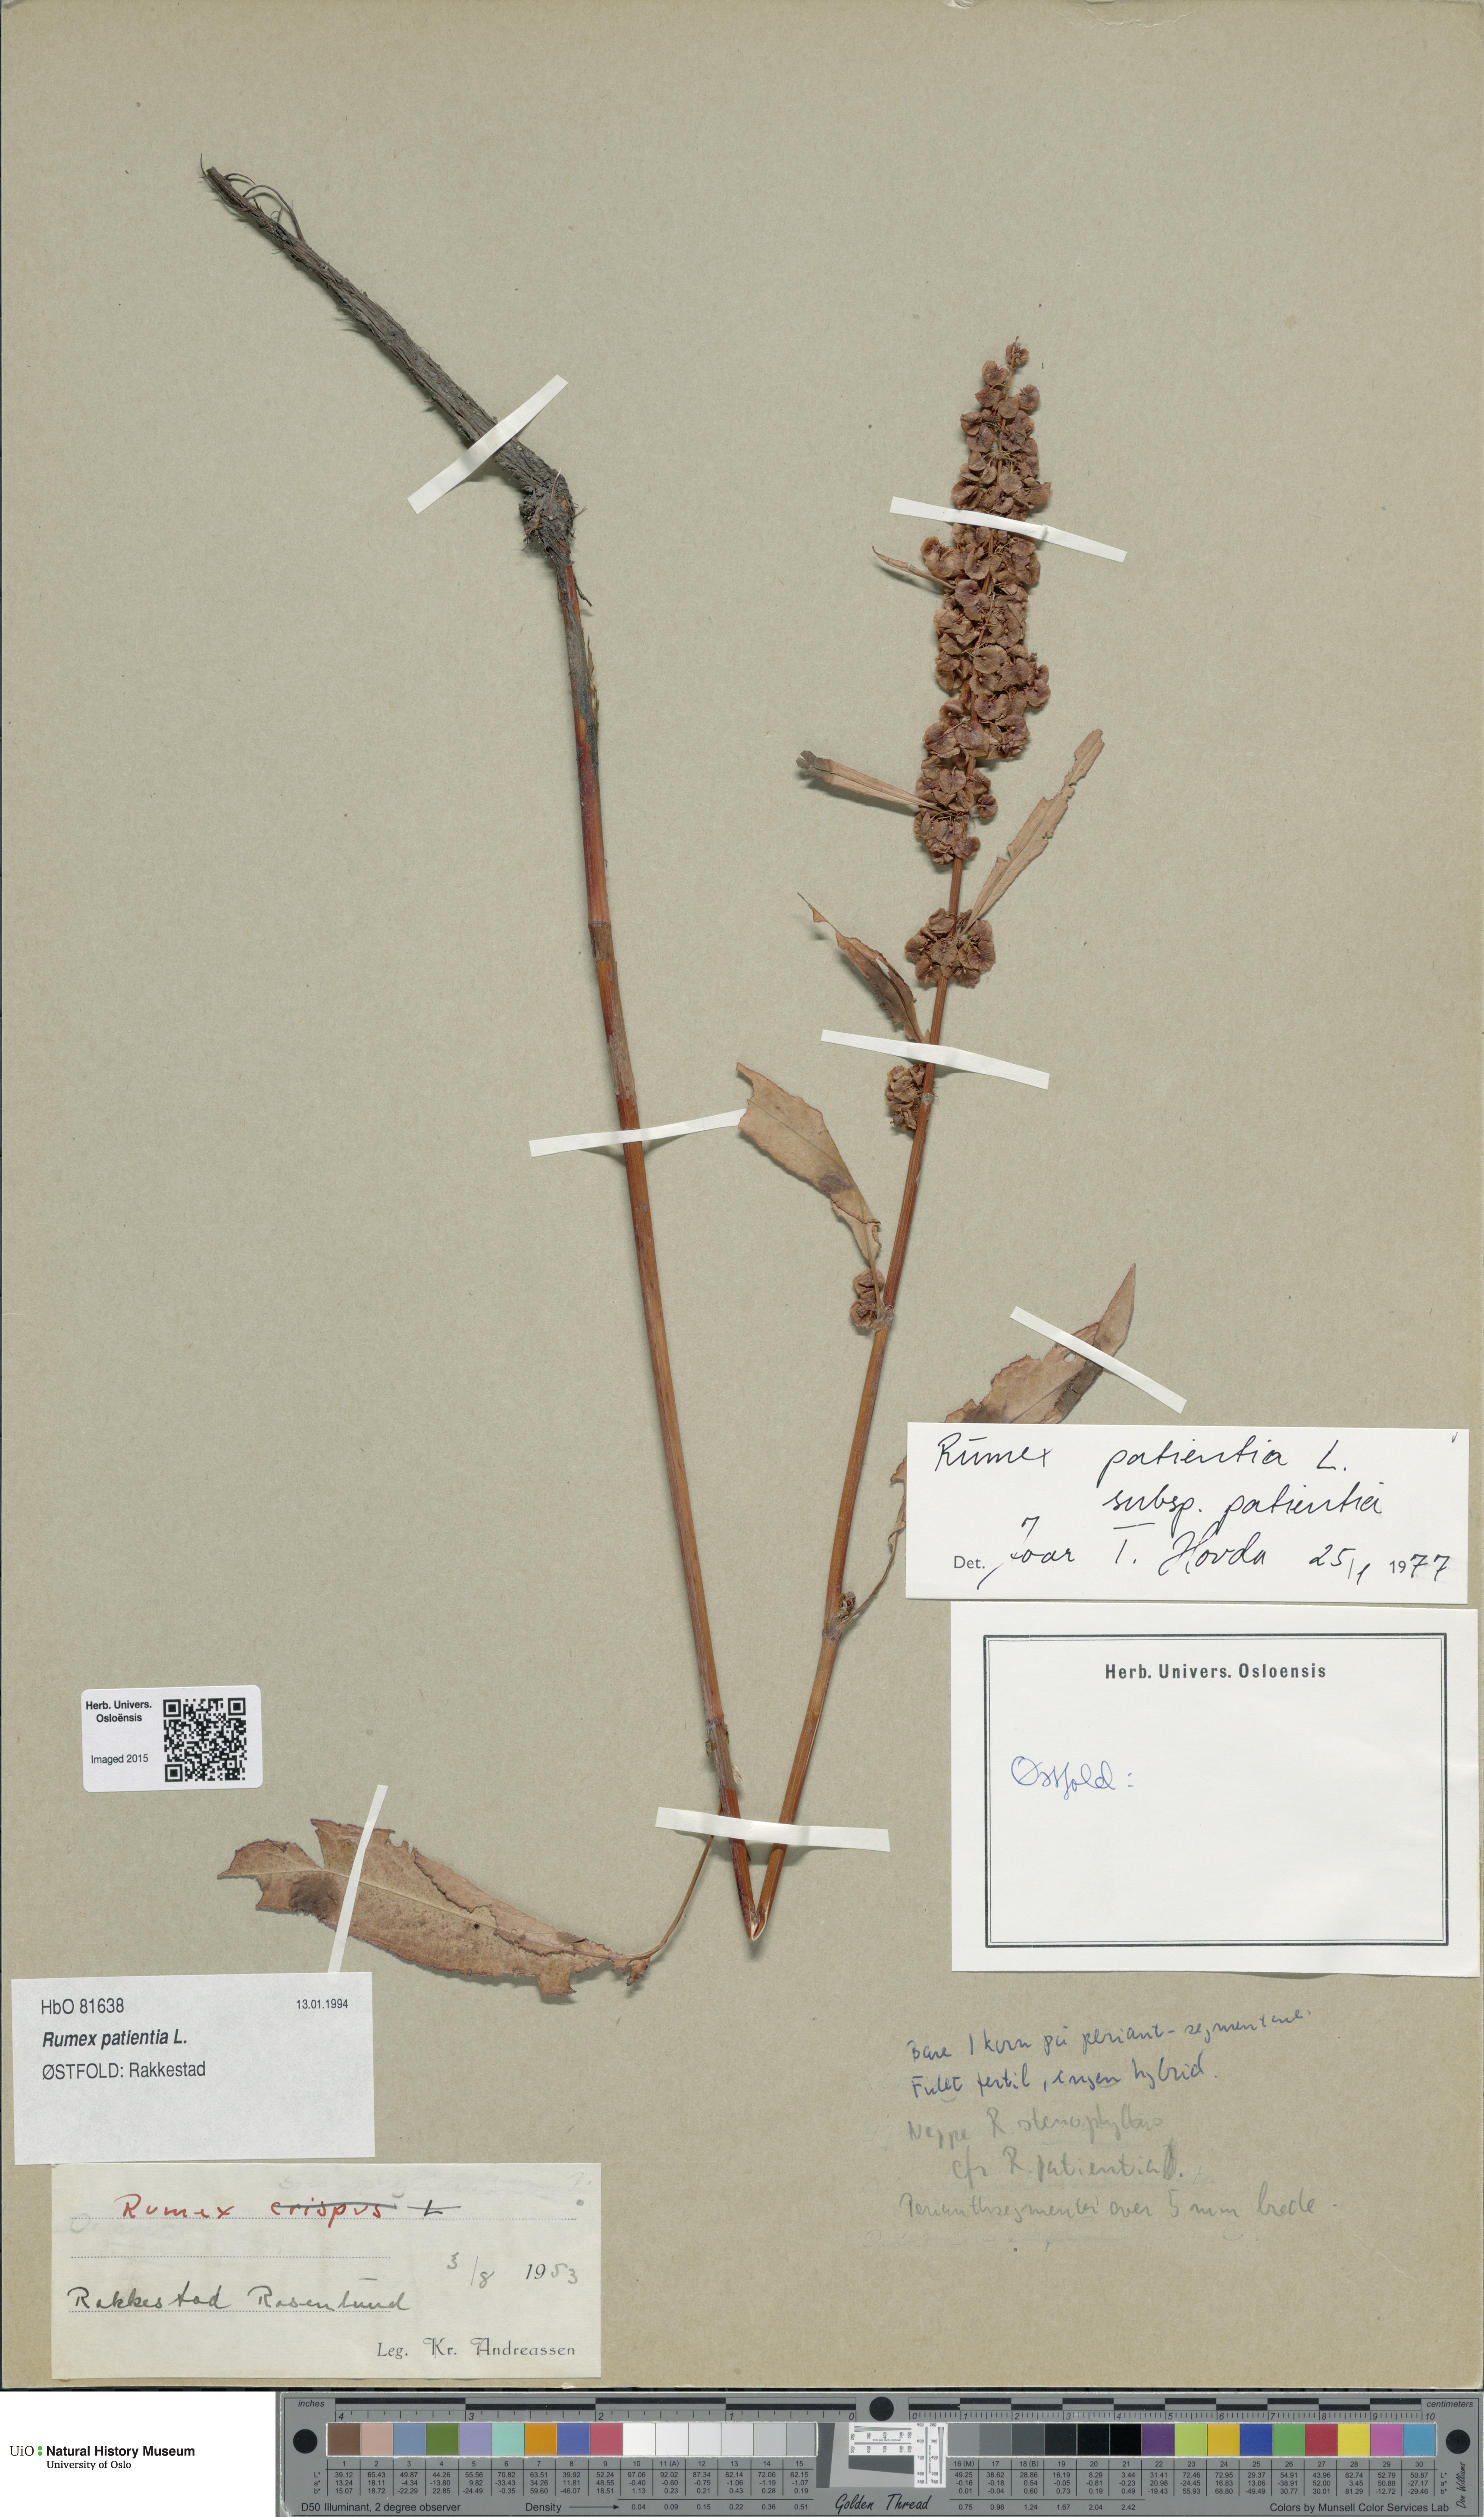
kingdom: Plantae
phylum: Tracheophyta
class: Magnoliopsida
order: Caryophyllales
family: Polygonaceae
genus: Rumex
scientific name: Rumex patientia
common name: Patience dock
